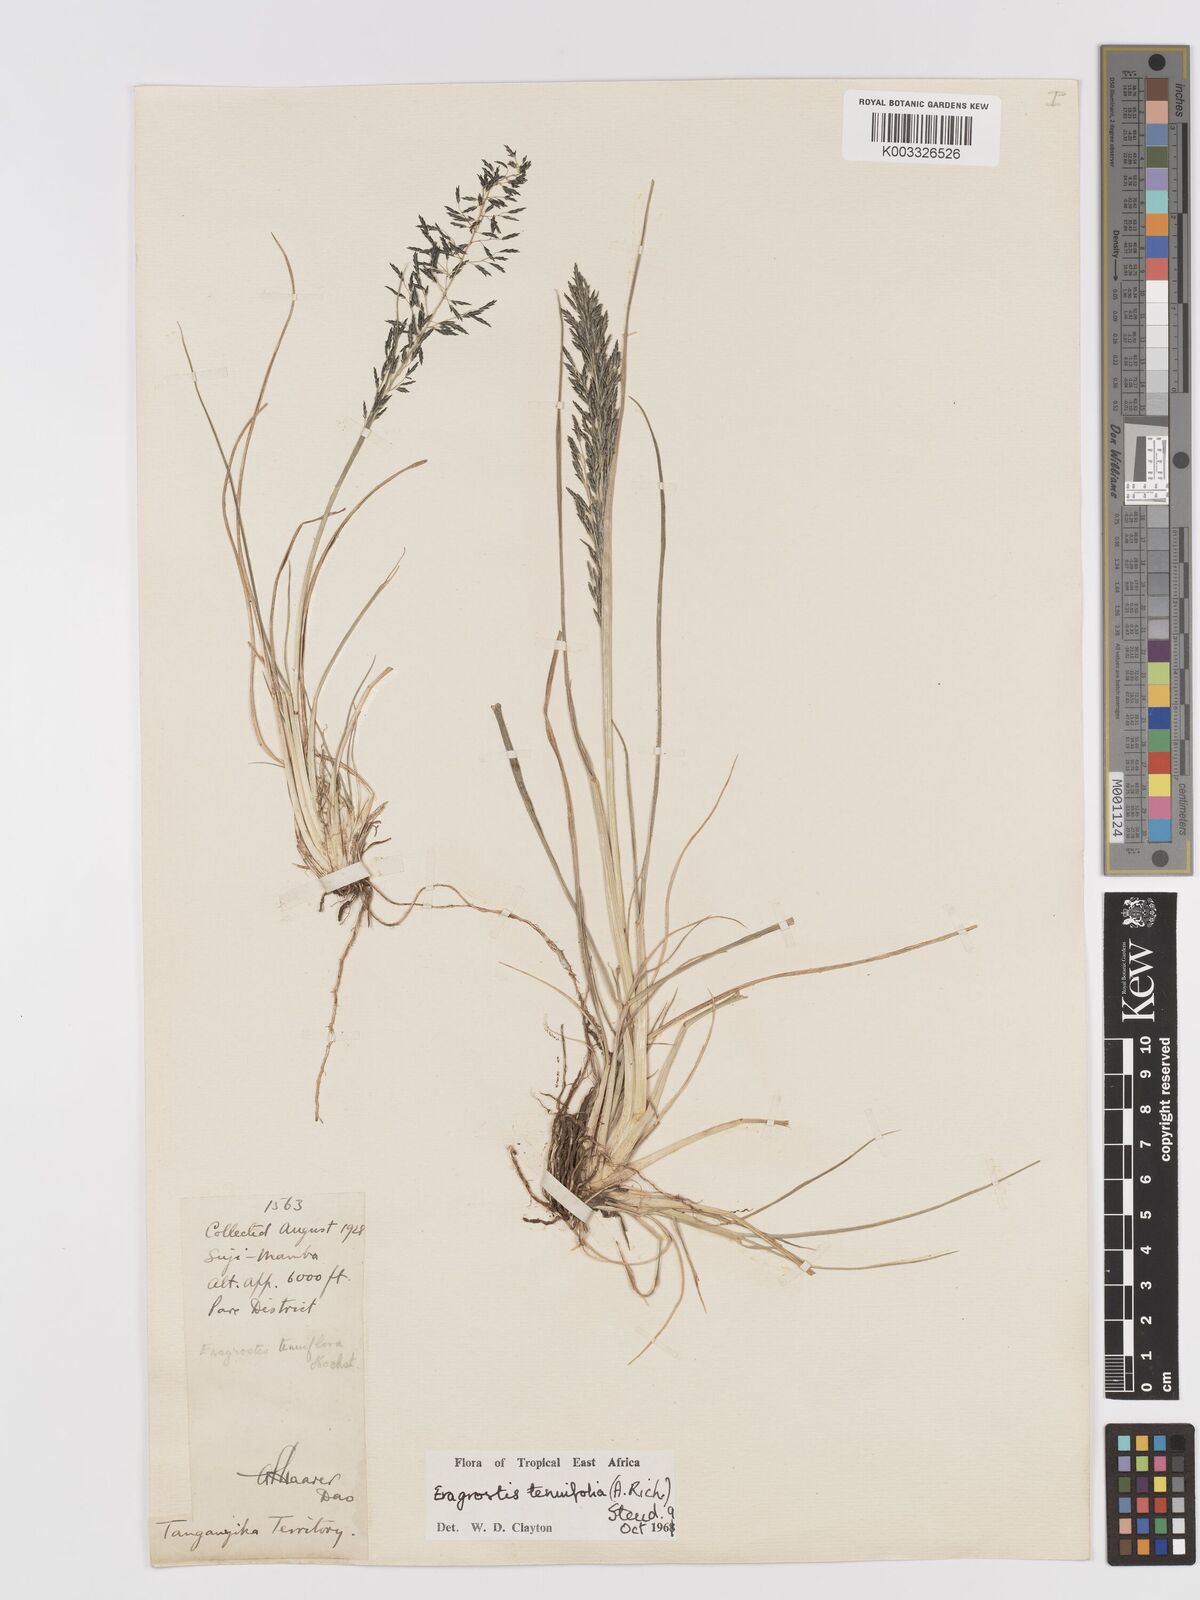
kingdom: Plantae
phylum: Tracheophyta
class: Liliopsida
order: Poales
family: Poaceae
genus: Eragrostis
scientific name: Eragrostis tenuifolia
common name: Elastic grass
